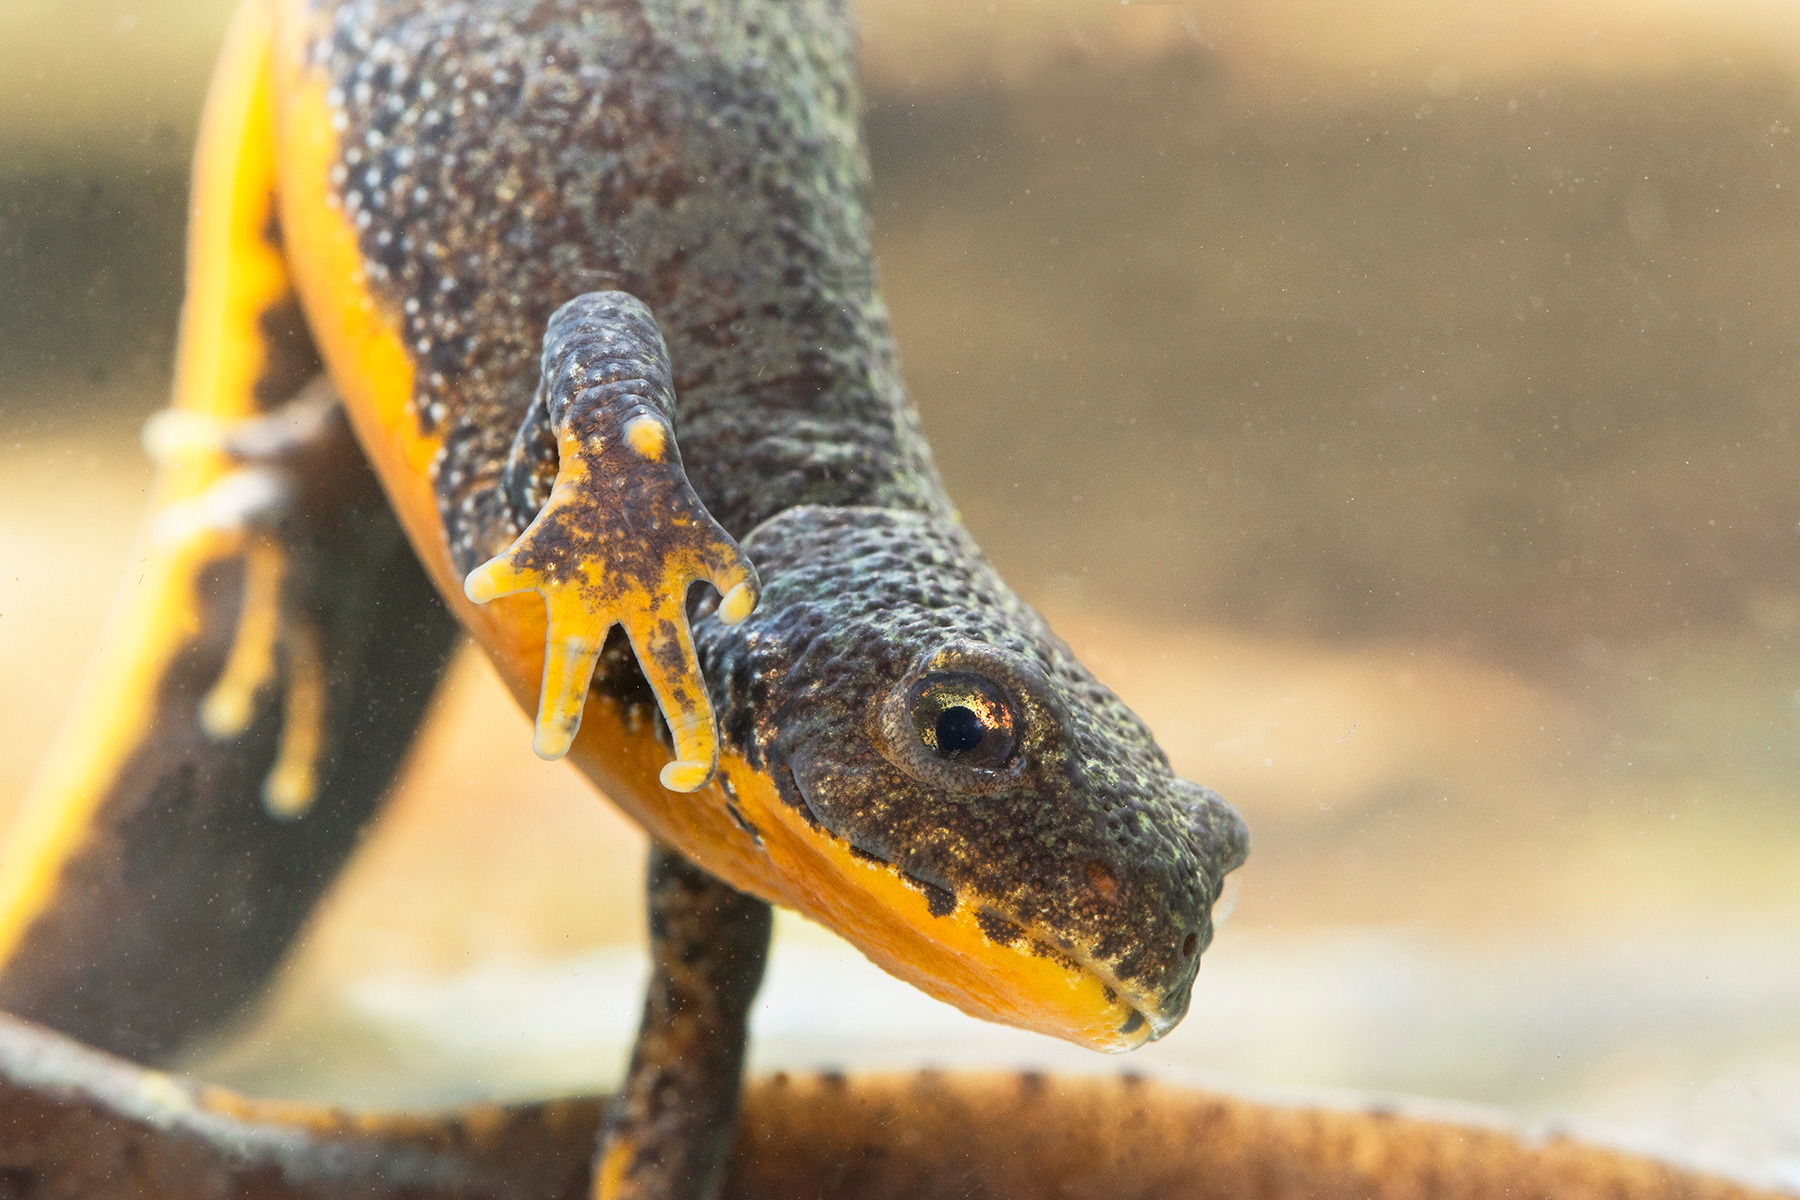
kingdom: Animalia
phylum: Chordata
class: Amphibia
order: Caudata
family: Salamandridae
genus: Ichthyosaura
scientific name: Ichthyosaura alpestris
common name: Bjergsalamander
